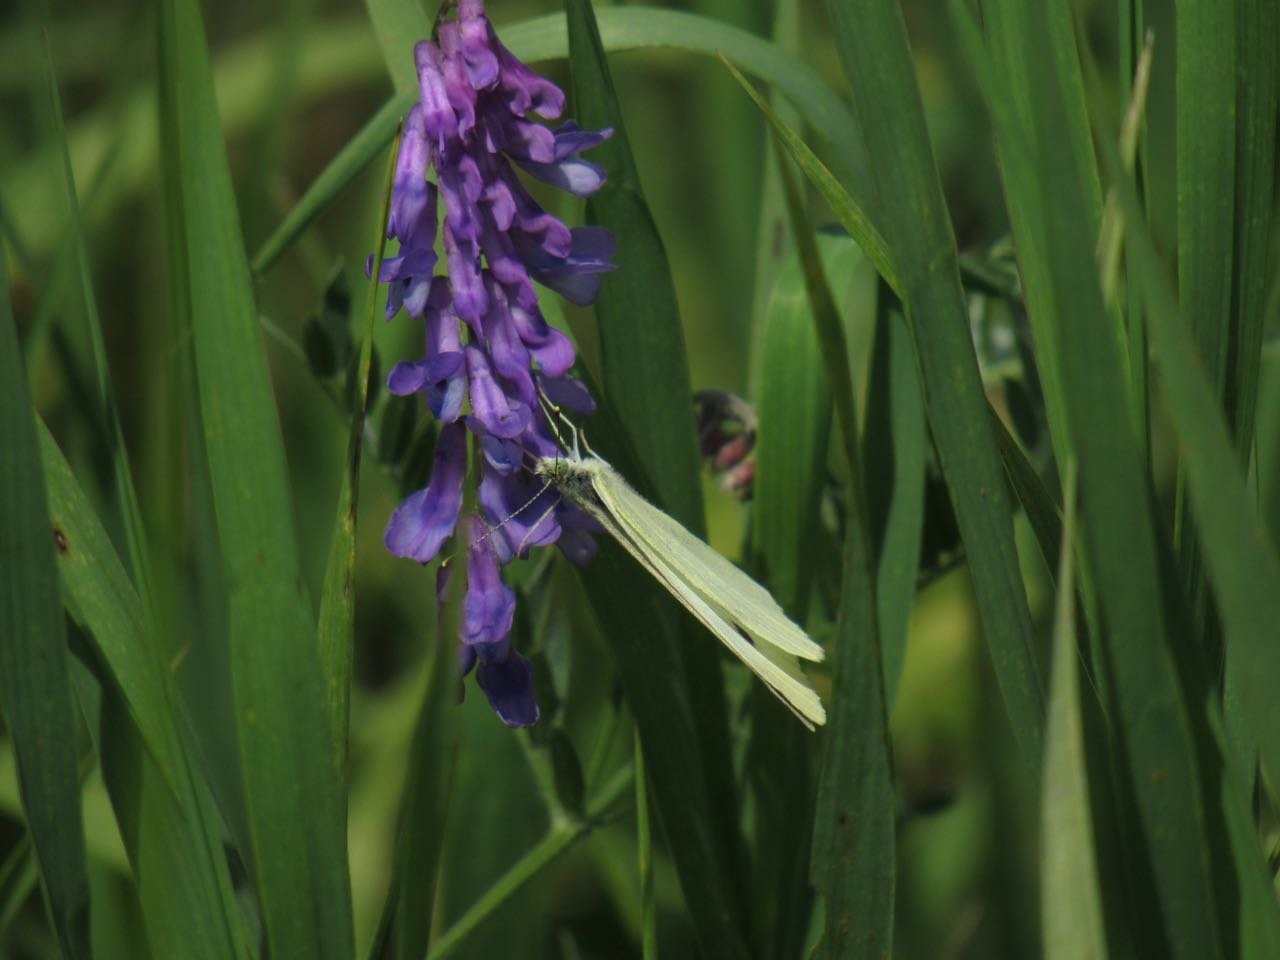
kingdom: Animalia
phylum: Arthropoda
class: Insecta
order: Lepidoptera
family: Pieridae
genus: Pieris
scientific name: Pieris rapae
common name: Cabbage White
